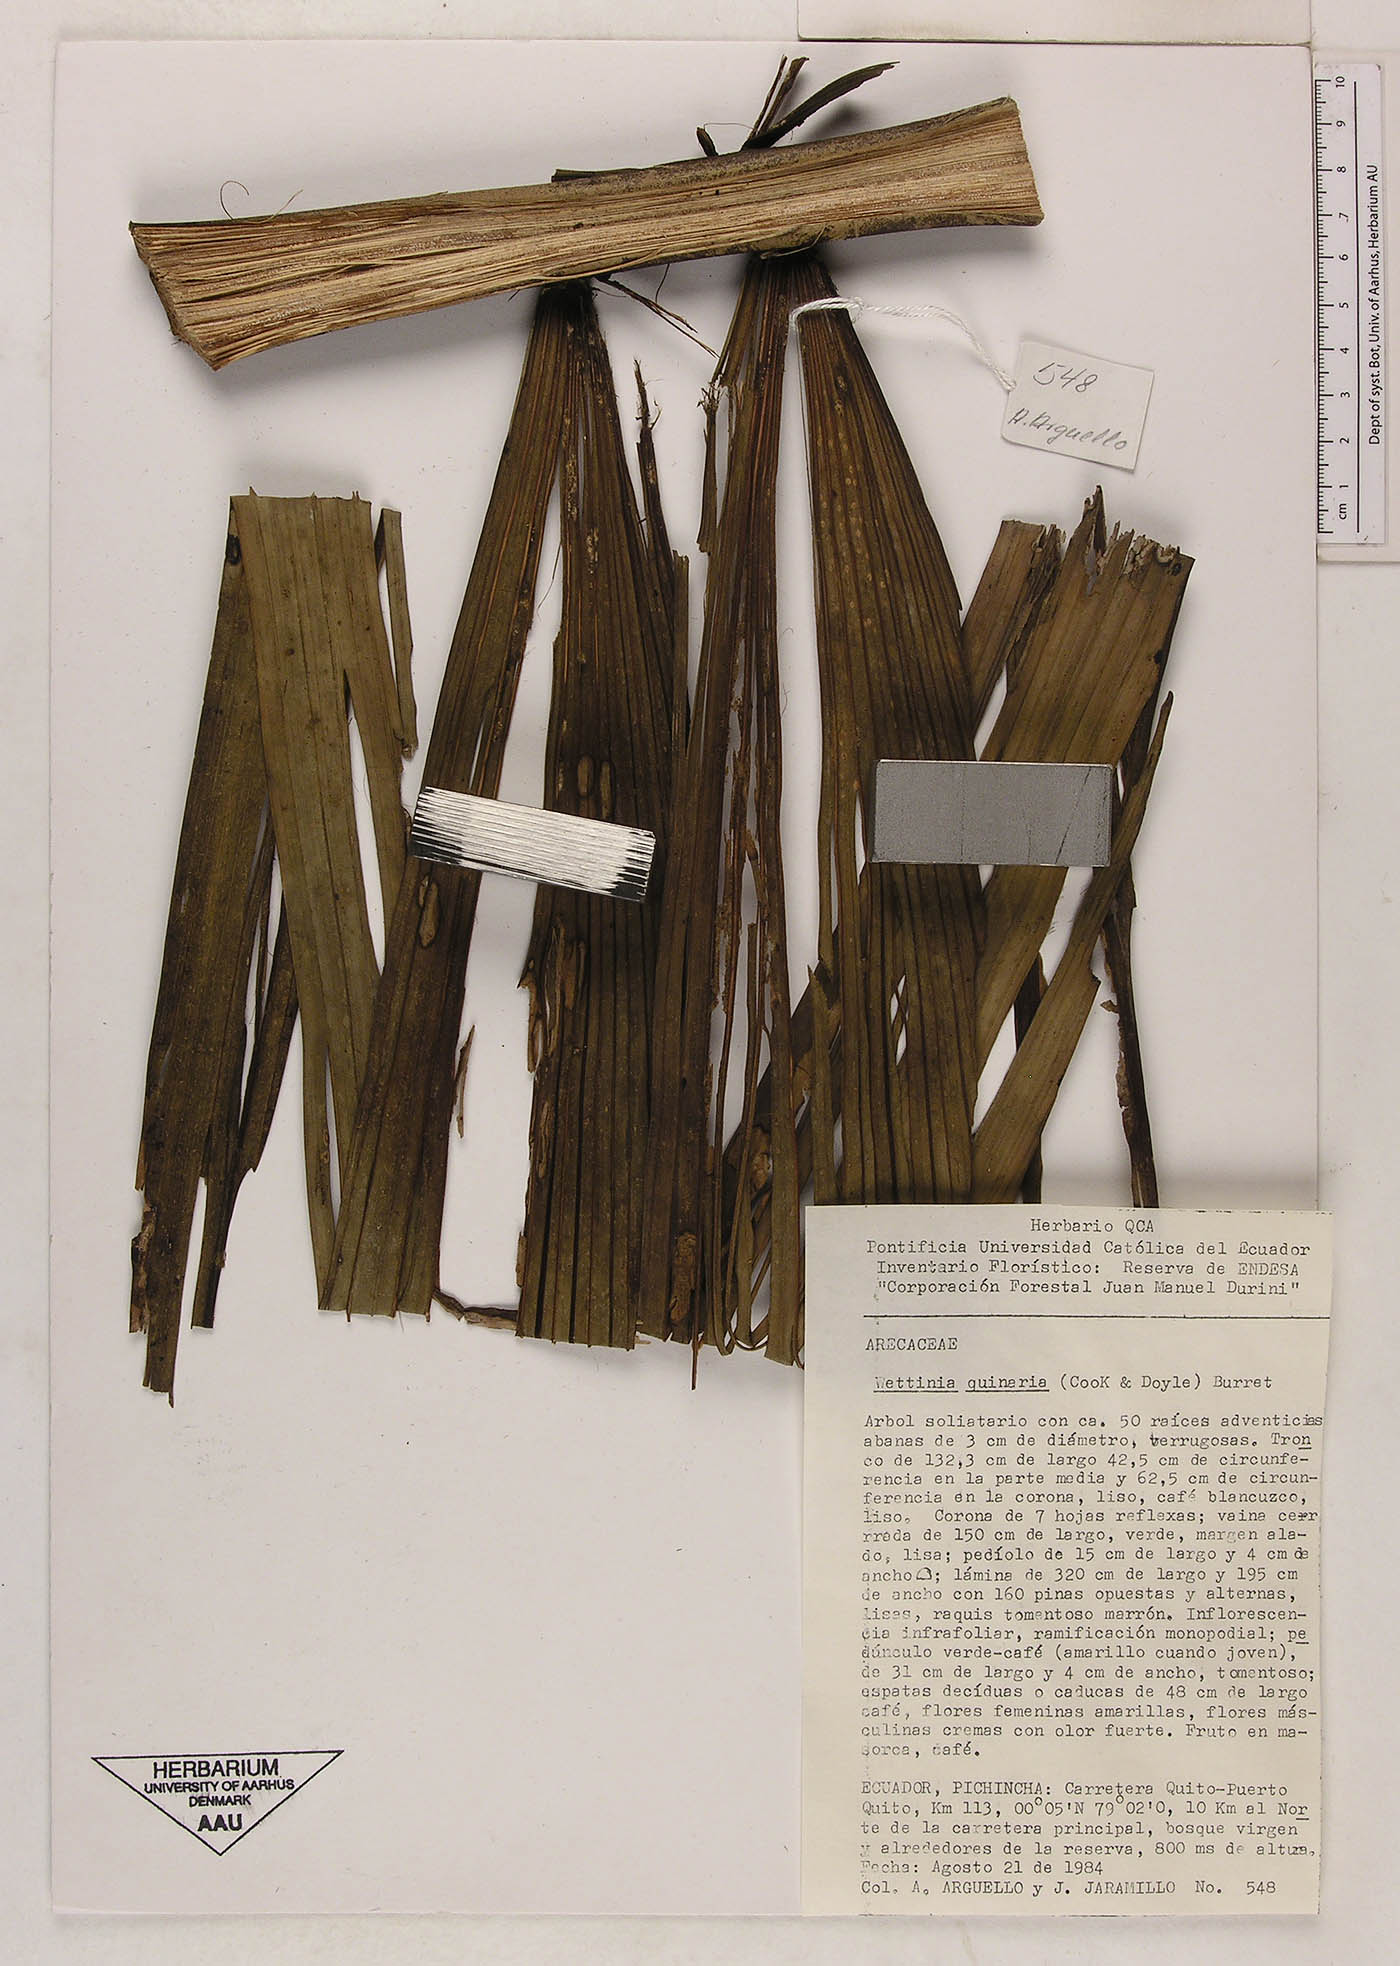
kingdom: Plantae
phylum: Tracheophyta
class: Liliopsida
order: Arecales
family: Arecaceae
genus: Wettinia
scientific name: Wettinia quinaria
